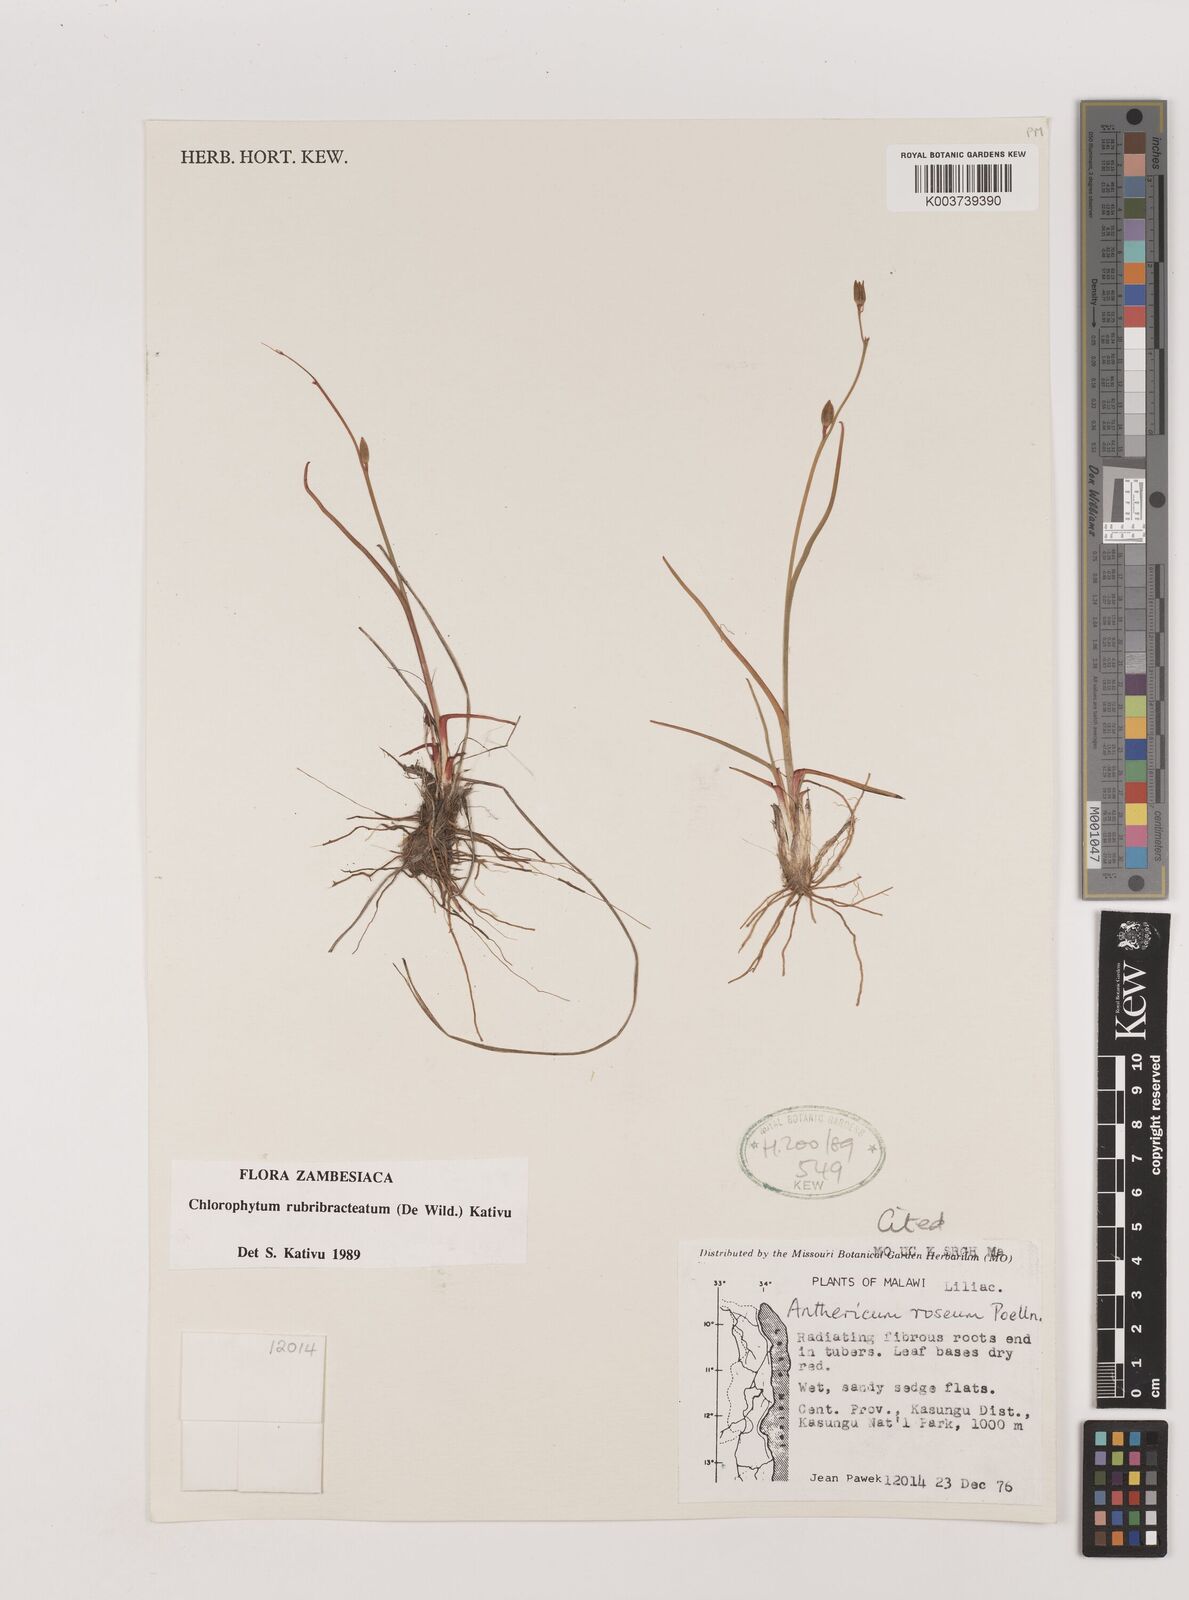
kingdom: Plantae
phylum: Tracheophyta
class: Liliopsida
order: Asparagales
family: Asparagaceae
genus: Chlorophytum
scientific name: Chlorophytum rubribracteatum
